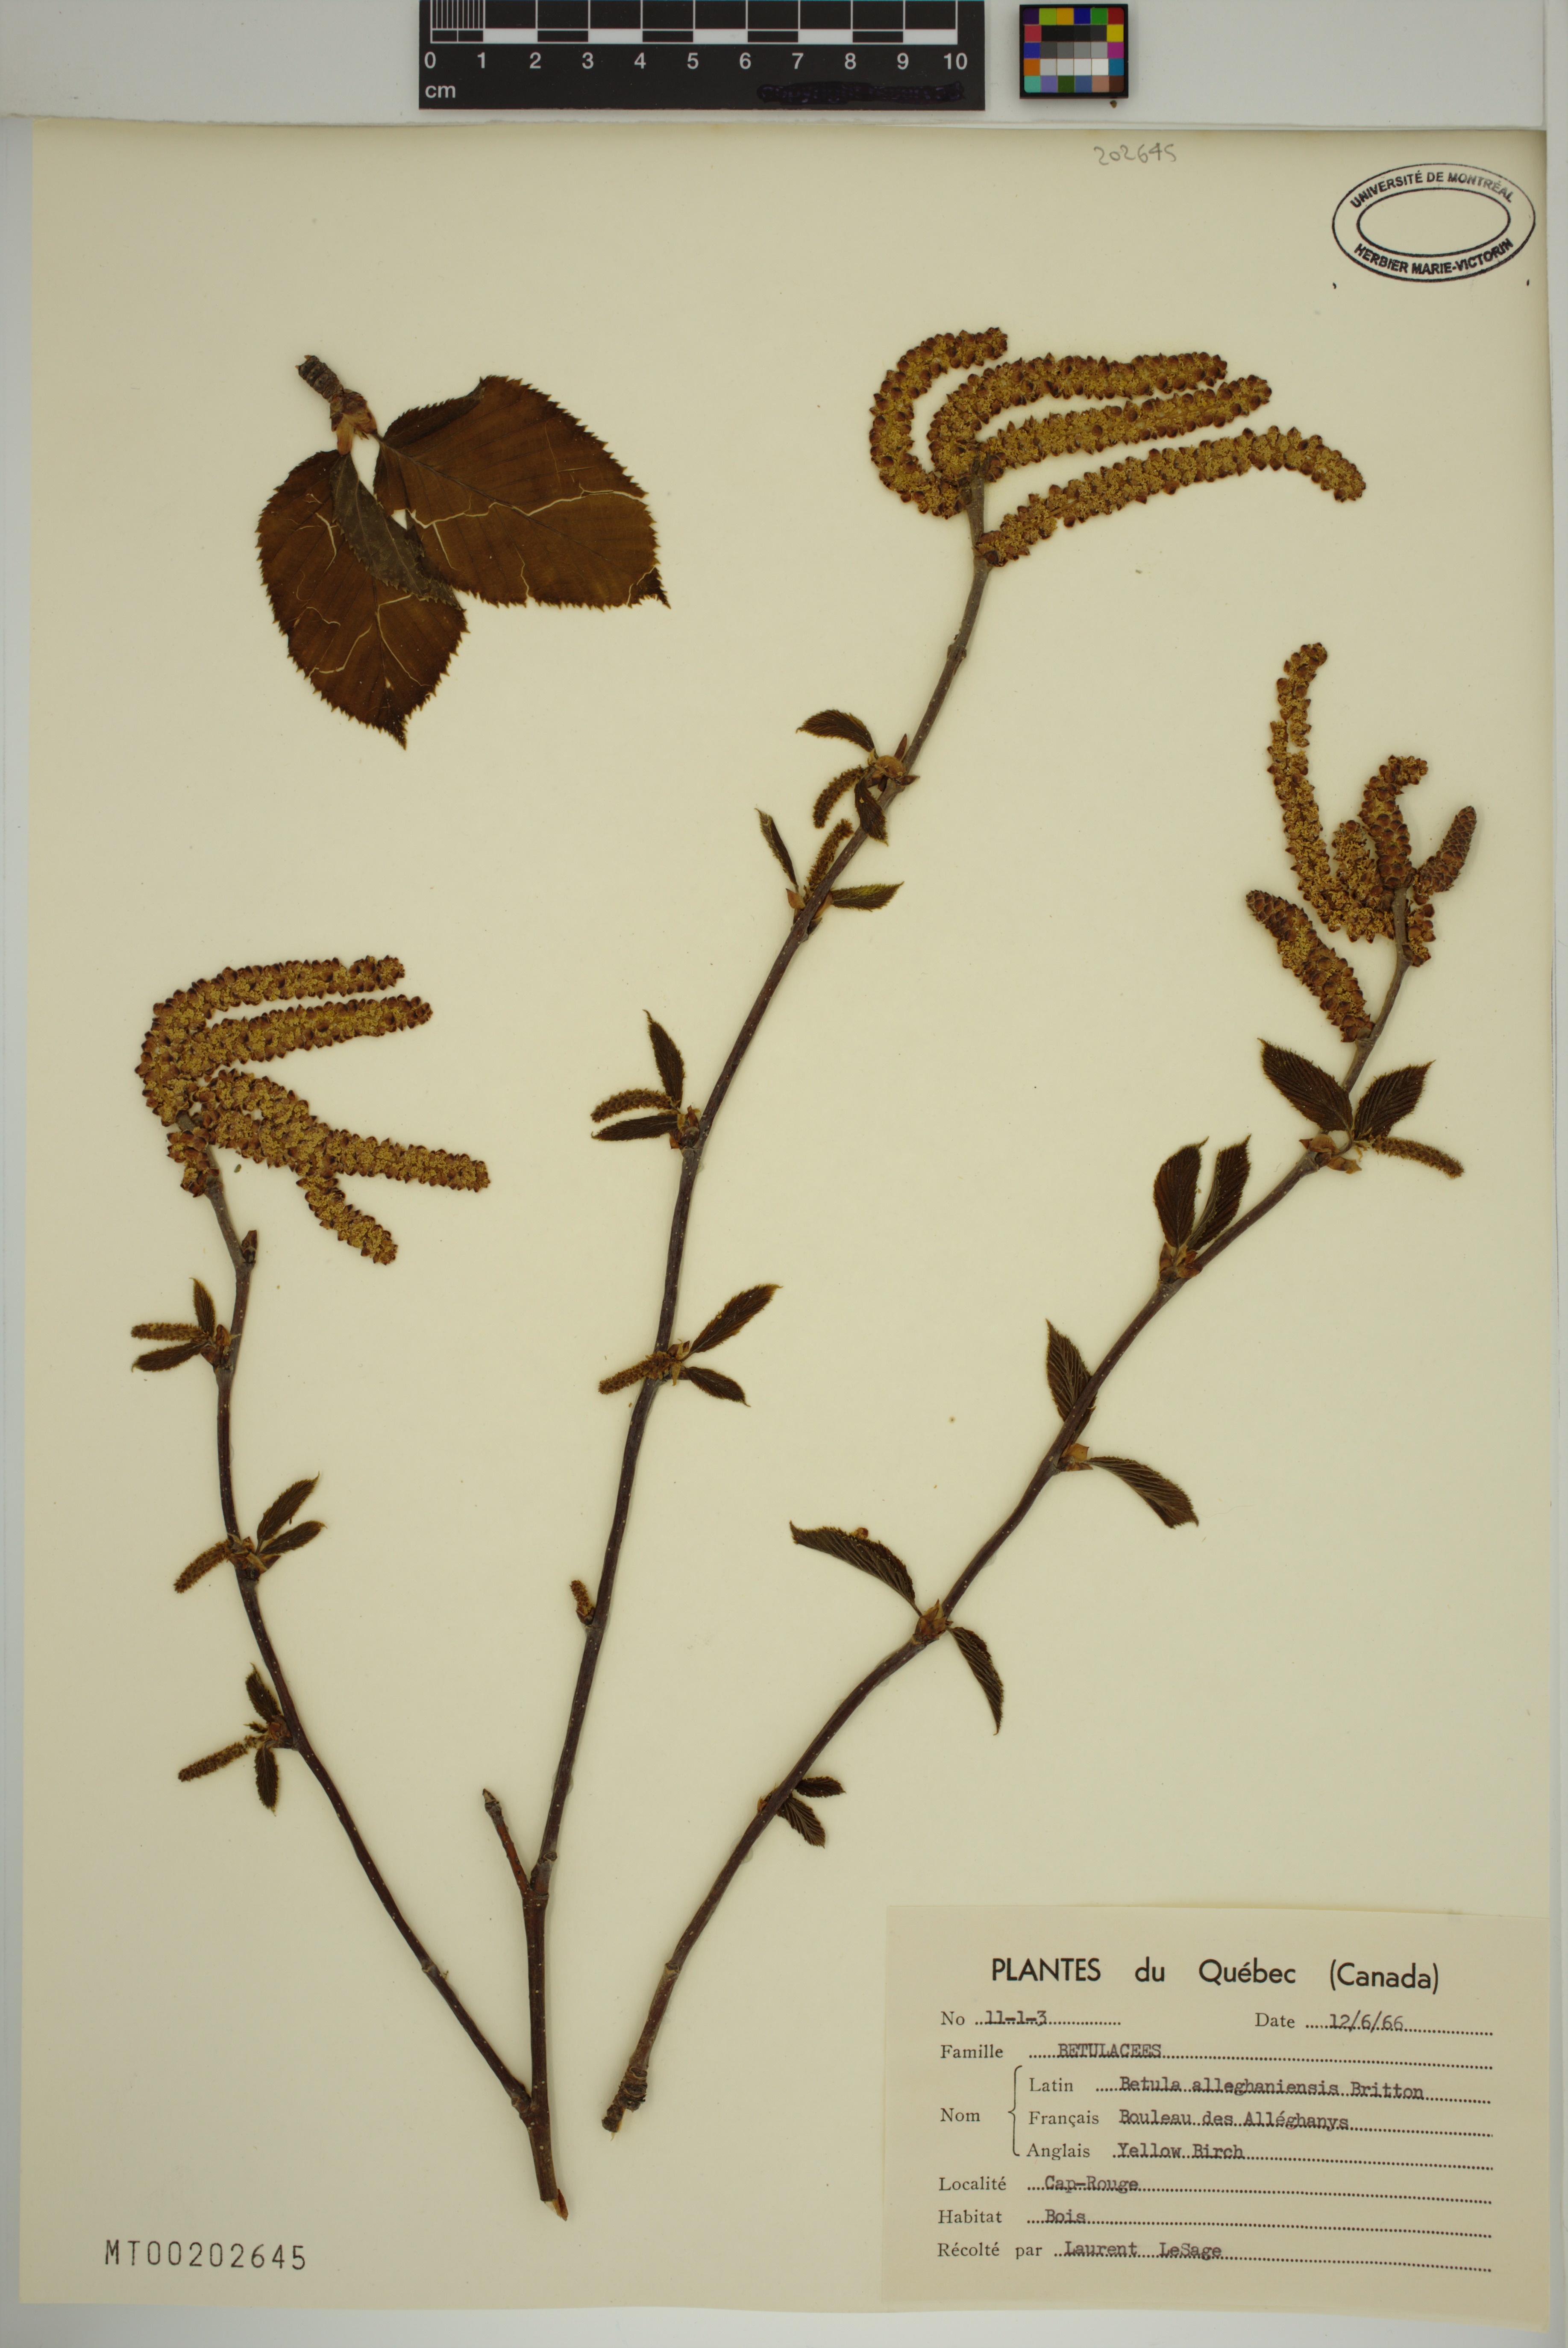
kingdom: Plantae
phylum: Tracheophyta
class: Magnoliopsida
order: Fagales
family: Betulaceae
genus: Betula
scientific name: Betula alleghaniensis
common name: Yellow birch
